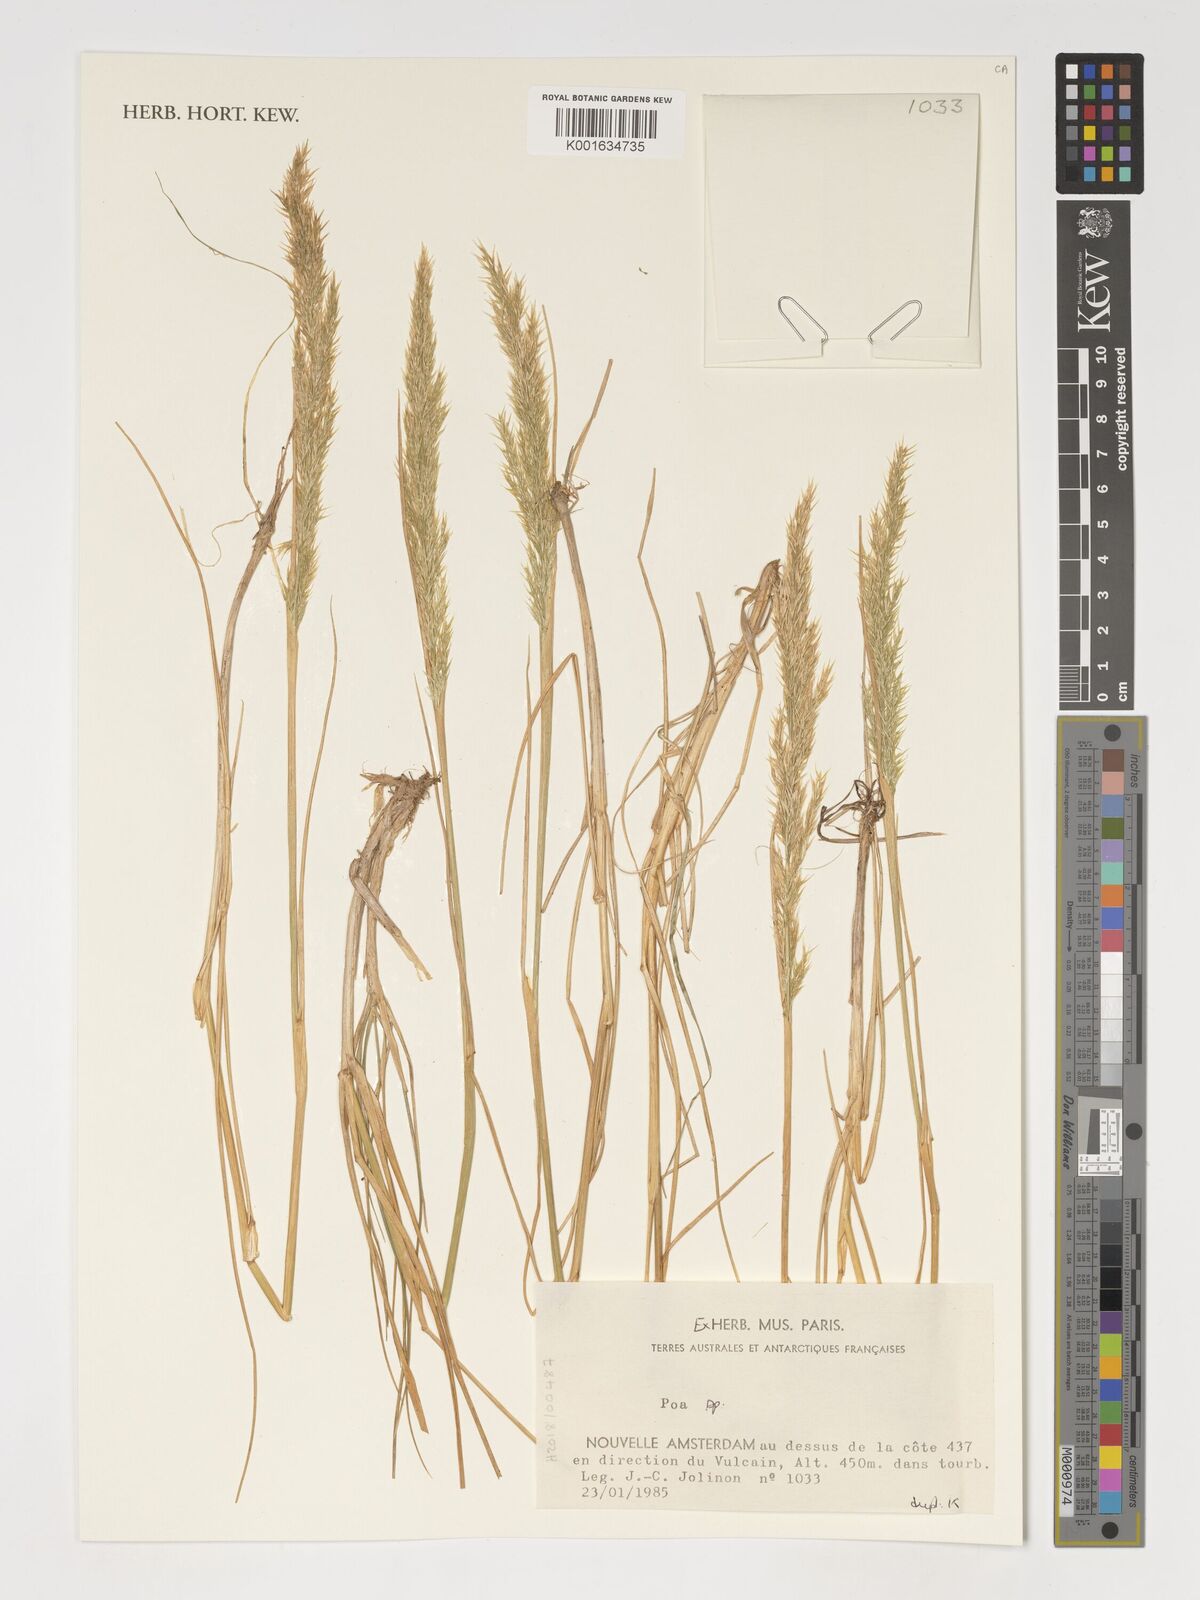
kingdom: Plantae
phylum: Tracheophyta
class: Liliopsida
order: Poales
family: Poaceae
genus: Poa
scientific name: Poa
